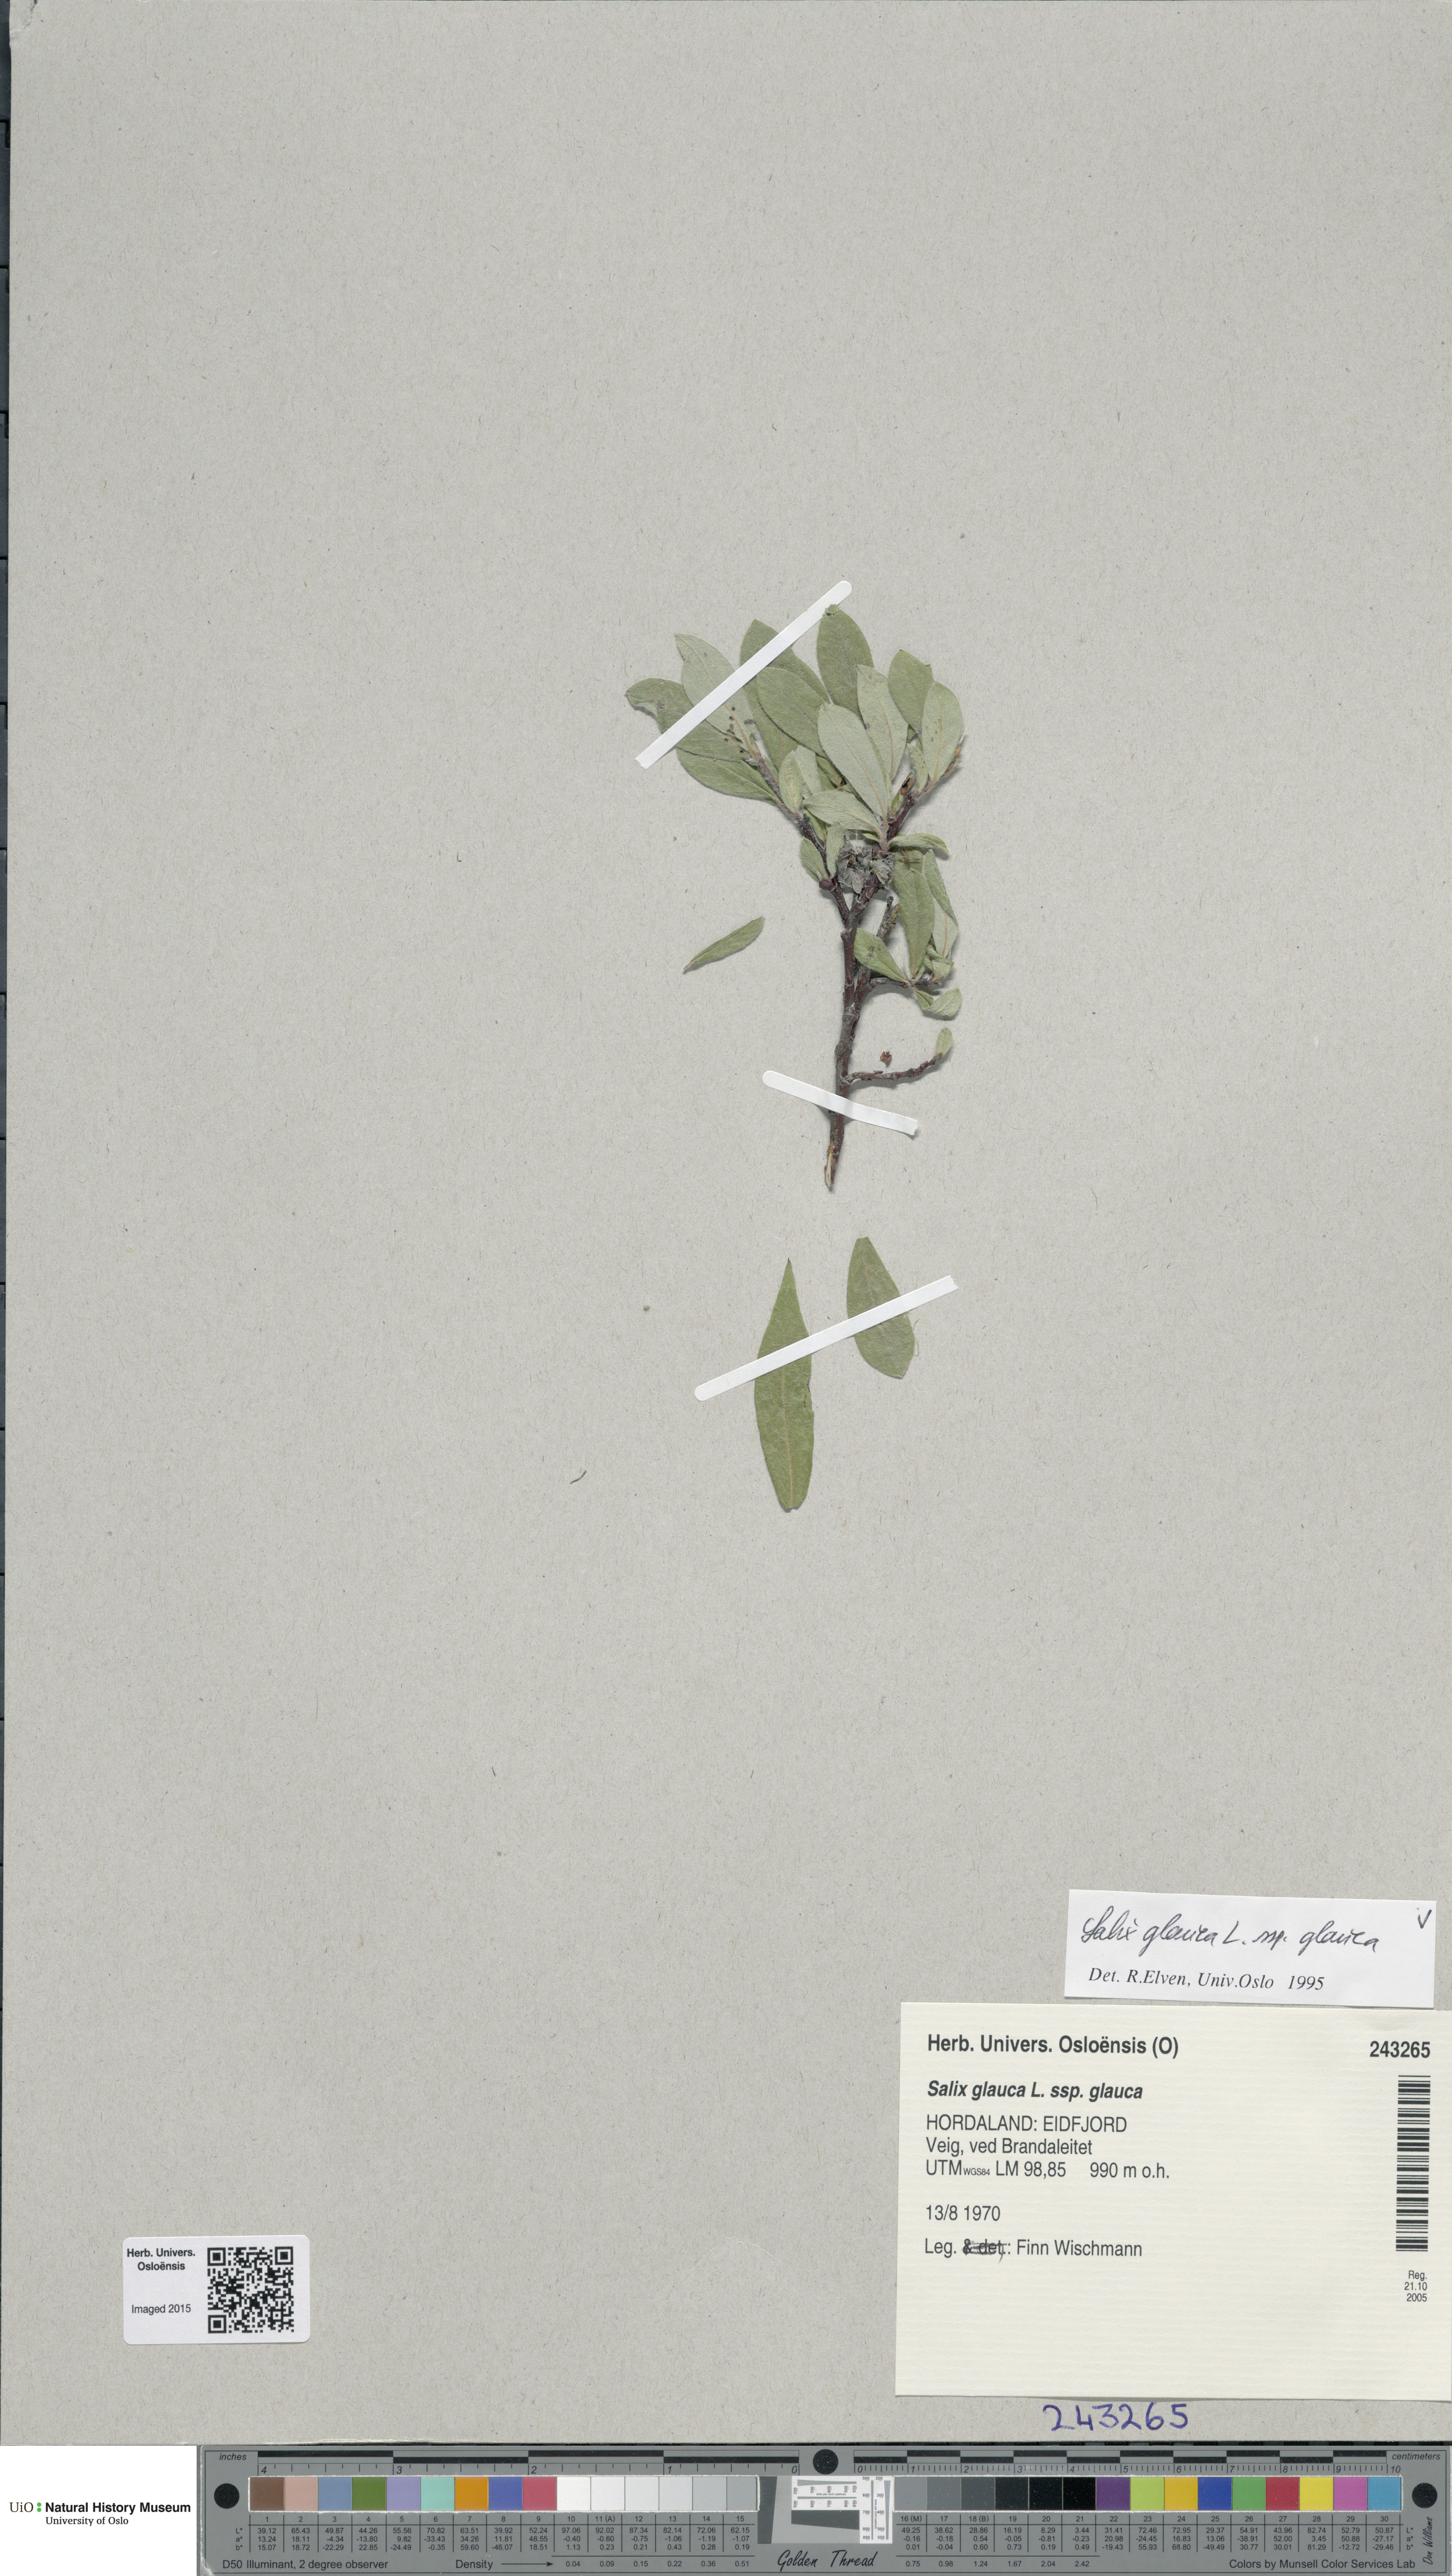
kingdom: Plantae
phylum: Tracheophyta
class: Magnoliopsida
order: Malpighiales
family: Salicaceae
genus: Salix
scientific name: Salix glauca
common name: Glaucous willow
